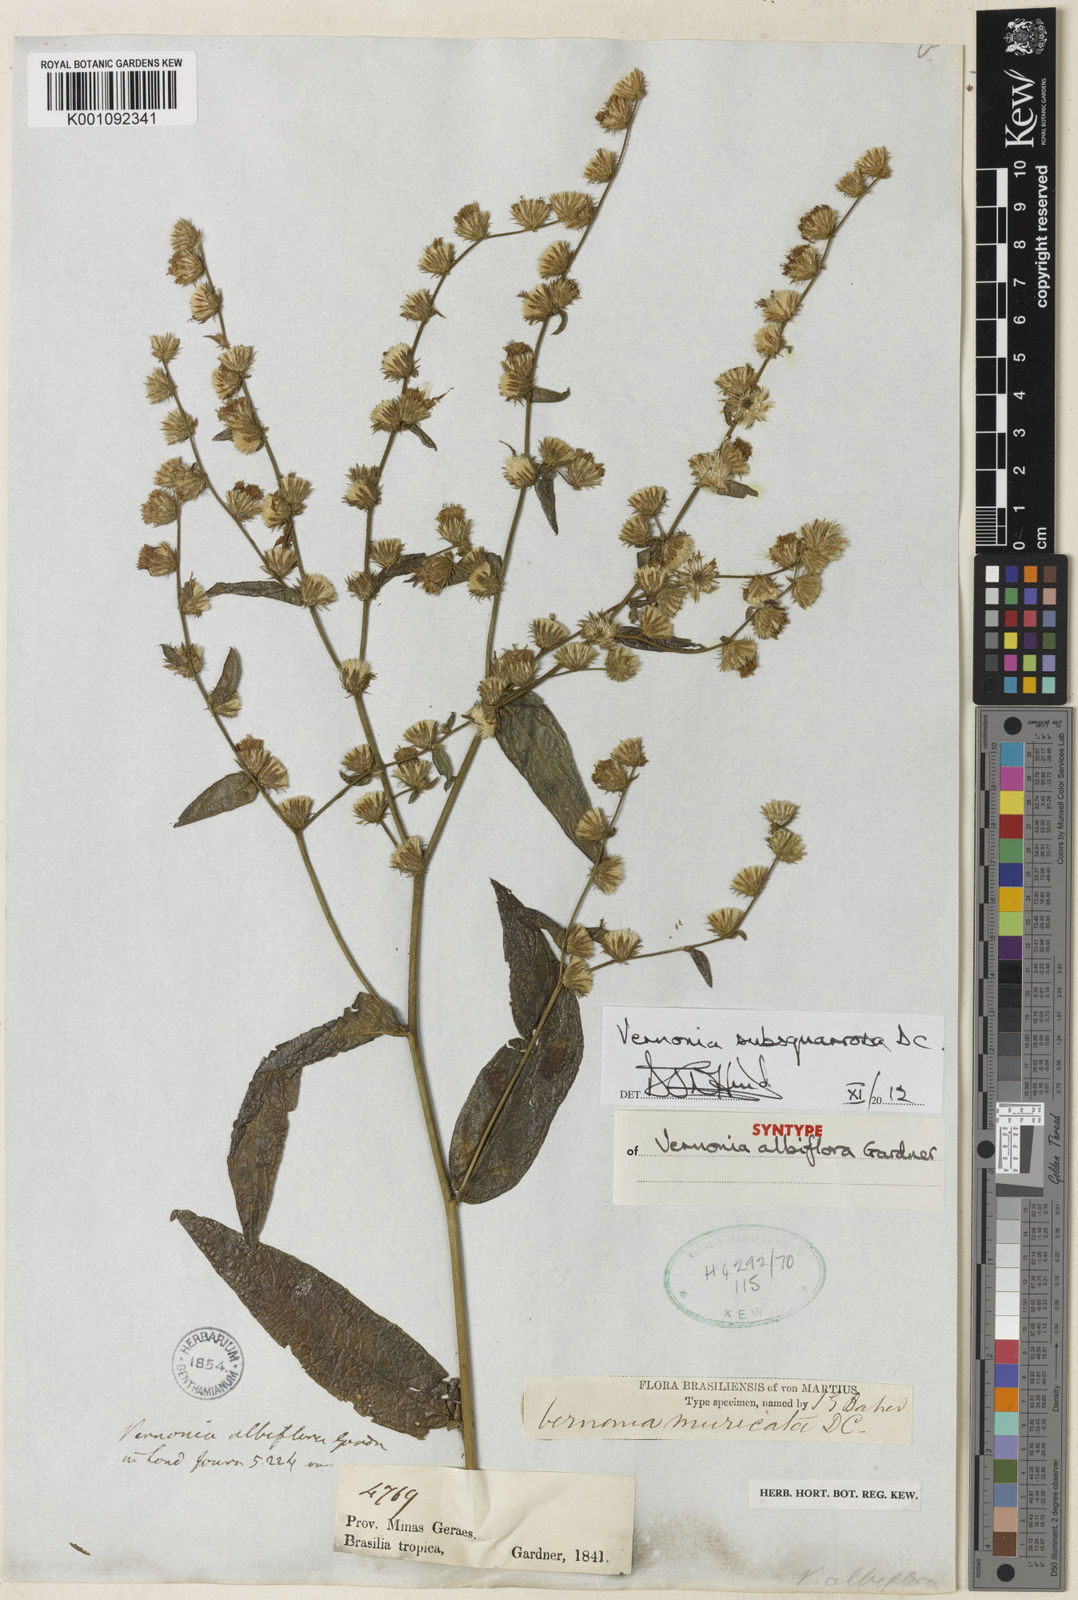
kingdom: Plantae
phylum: Tracheophyta
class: Magnoliopsida
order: Asterales
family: Asteraceae
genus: Lepidaploa
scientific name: Lepidaploa subsquarrosa
